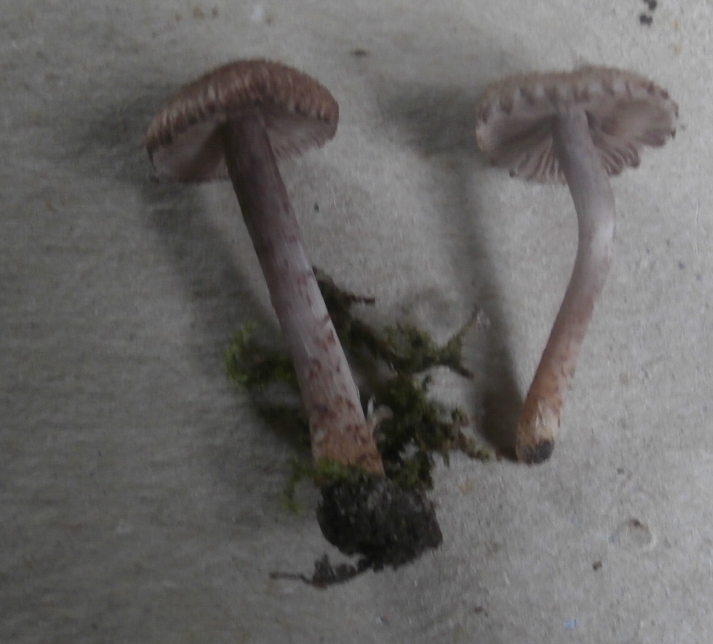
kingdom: Fungi
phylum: Basidiomycota
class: Agaricomycetes
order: Agaricales
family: Inocybaceae
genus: Inocybe
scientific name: Inocybe griseolilacina
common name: lillagrå trævlhat
